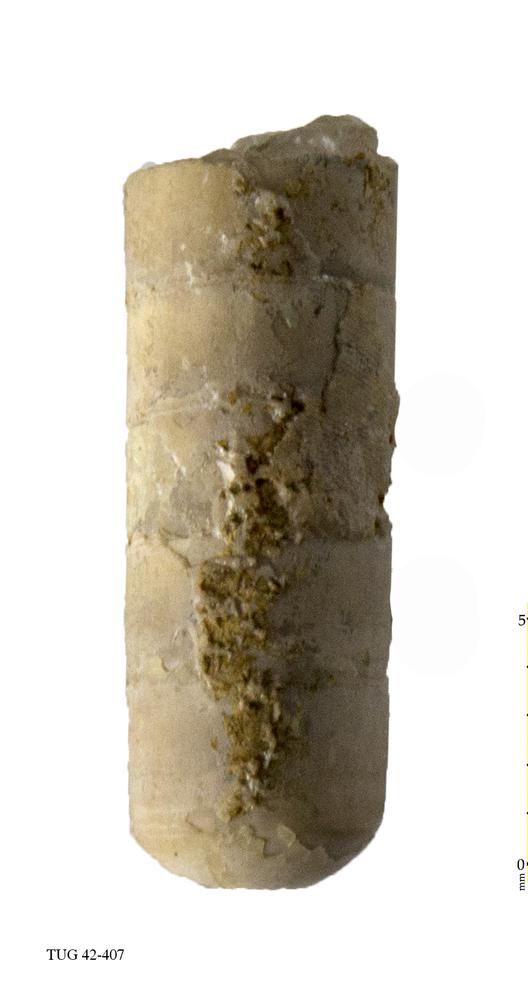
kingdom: Animalia
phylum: Mollusca
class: Cephalopoda
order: Orthocerida
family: Orthoceratidae
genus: Orthoceras
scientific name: Orthoceras regulare
